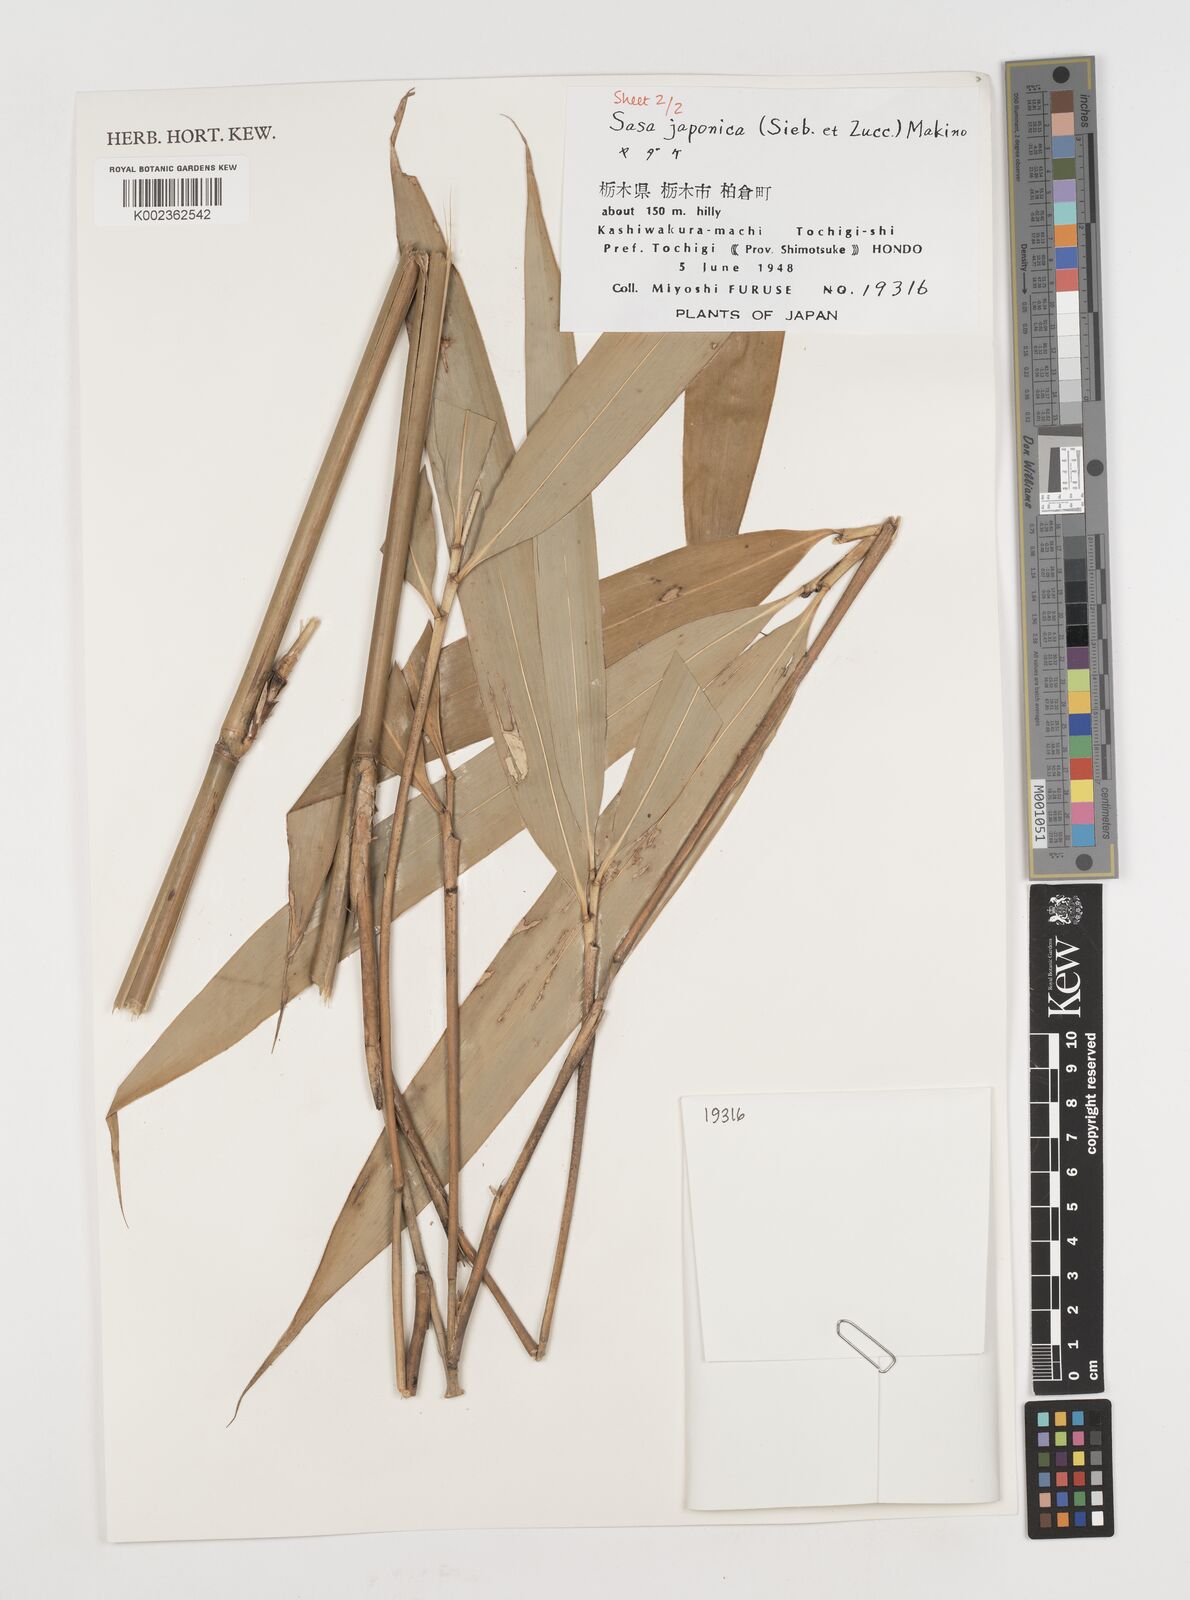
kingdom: Plantae
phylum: Tracheophyta
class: Liliopsida
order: Poales
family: Poaceae
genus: Pseudosasa
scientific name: Pseudosasa japonica
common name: Arrow bamboo
